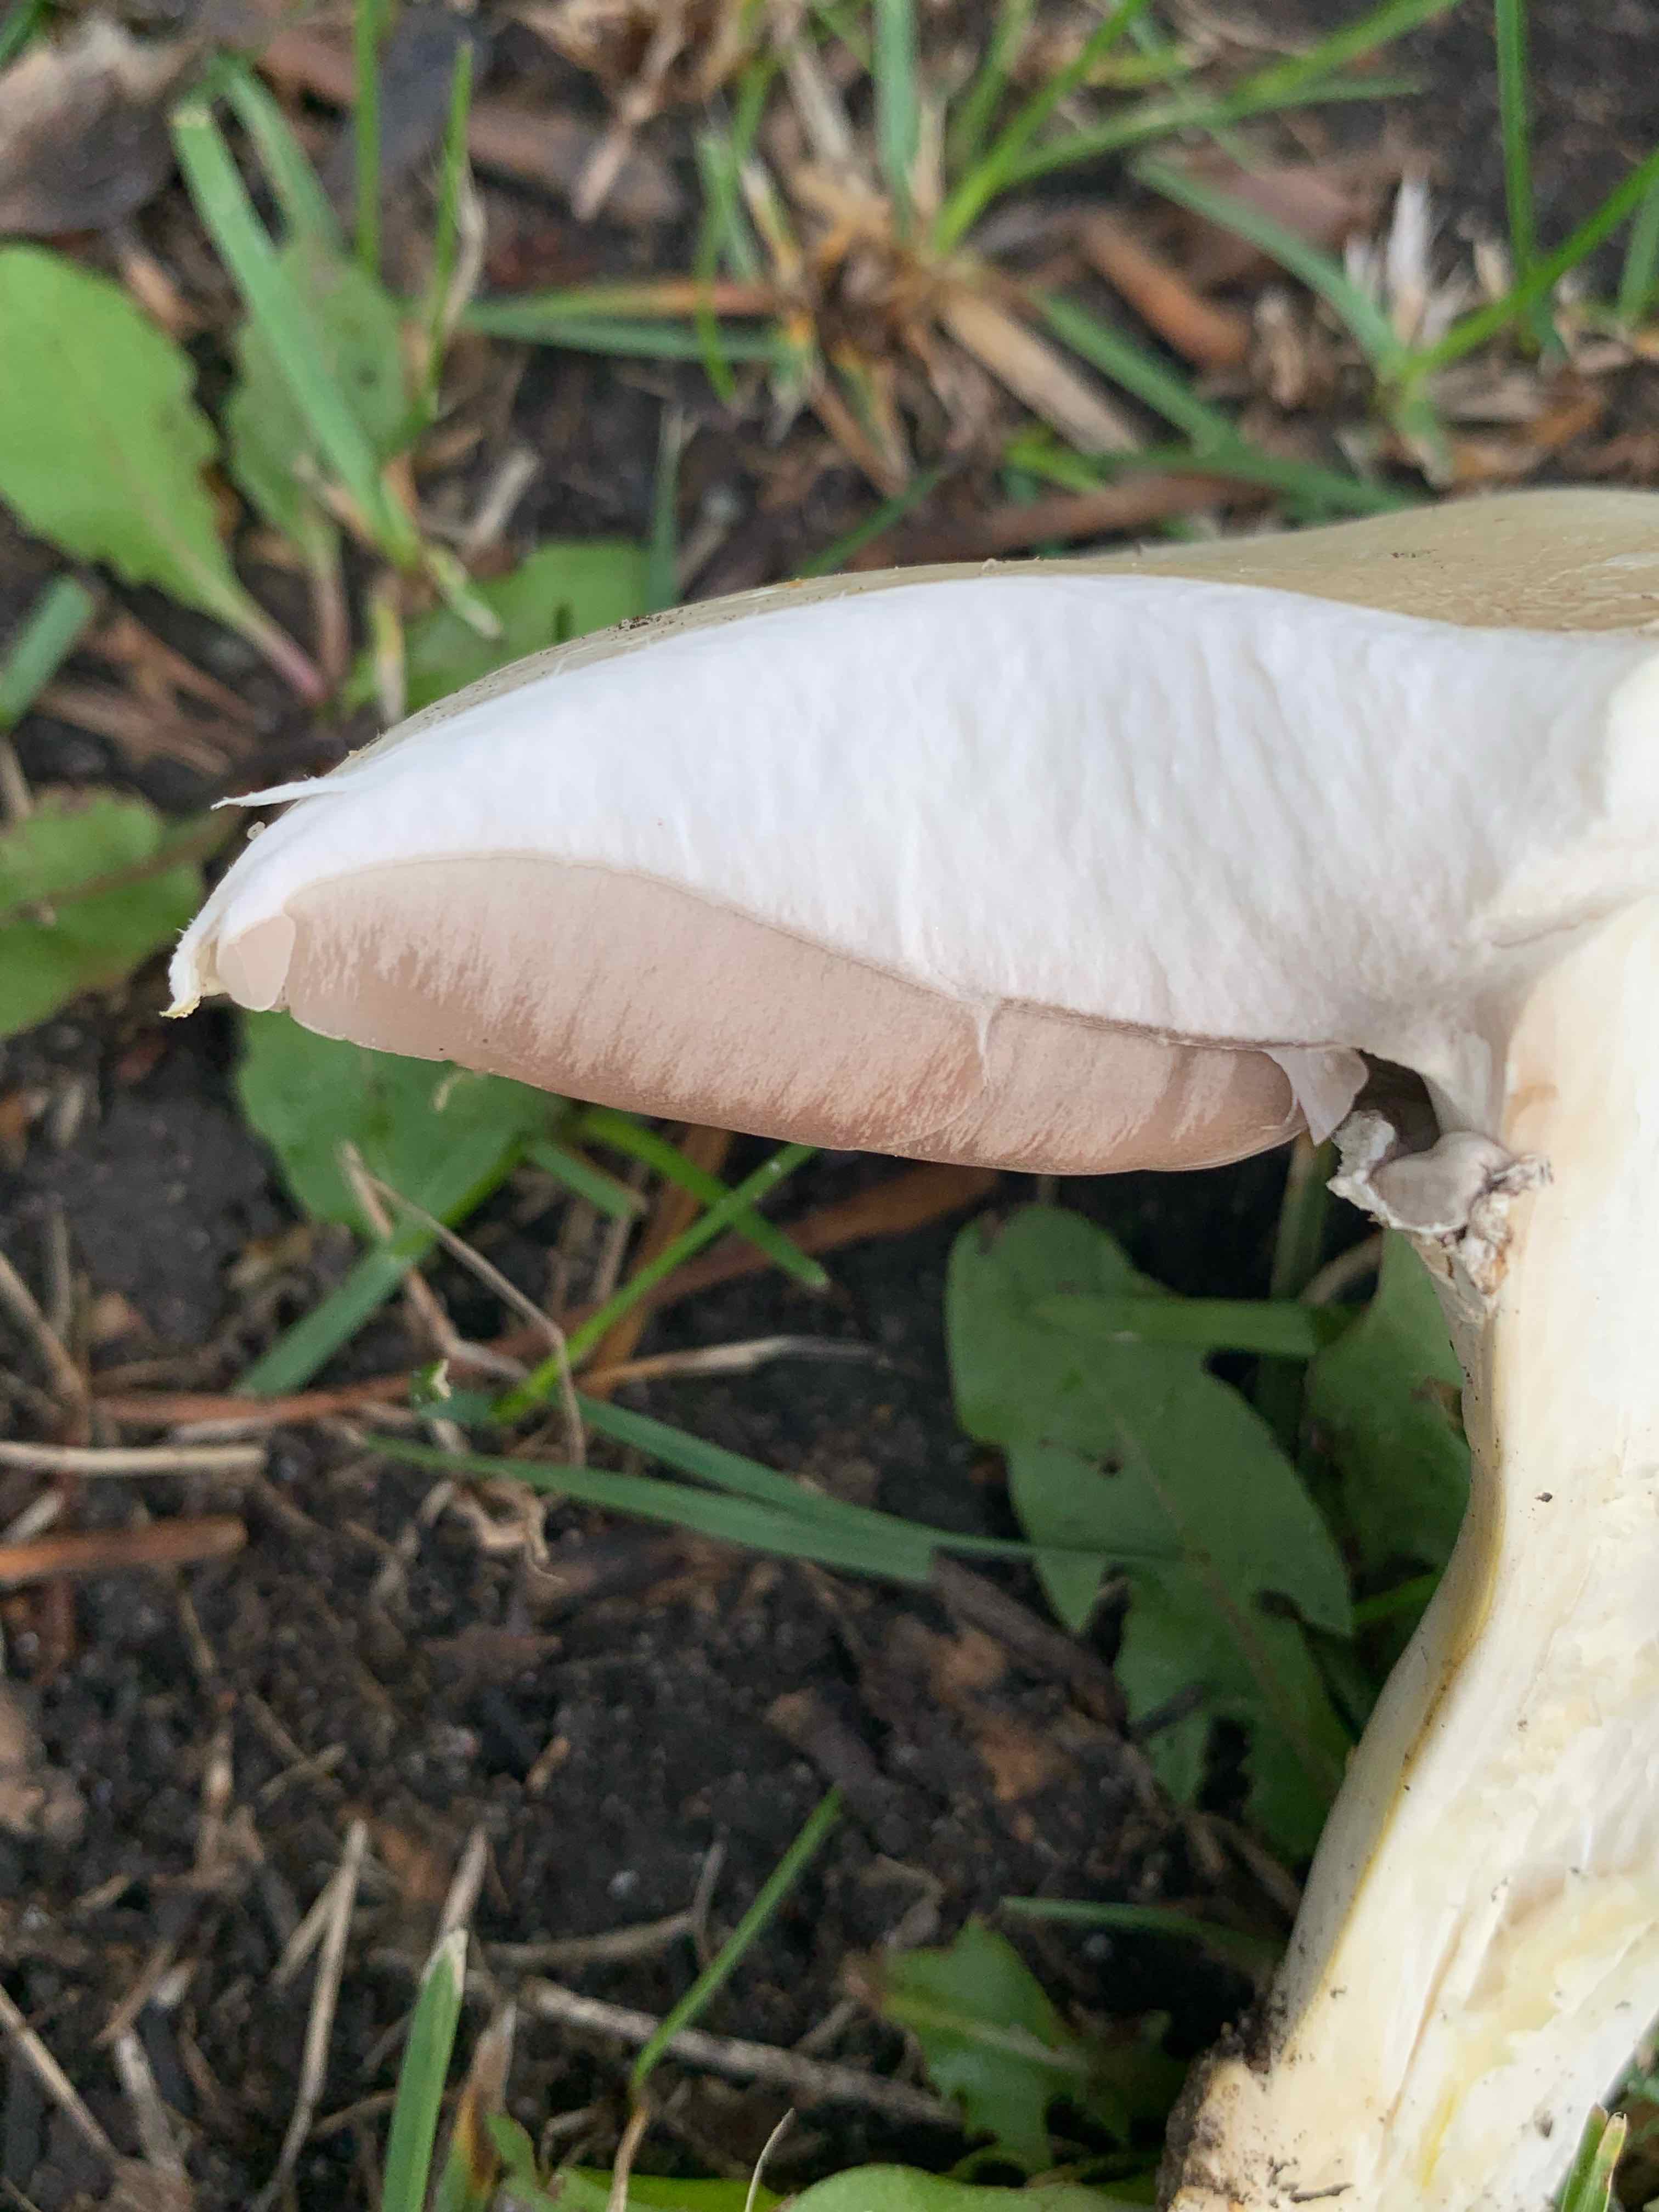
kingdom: Fungi
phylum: Basidiomycota
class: Agaricomycetes
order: Agaricales
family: Agaricaceae
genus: Agaricus
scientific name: Agaricus arvensis
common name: ager-champignon
